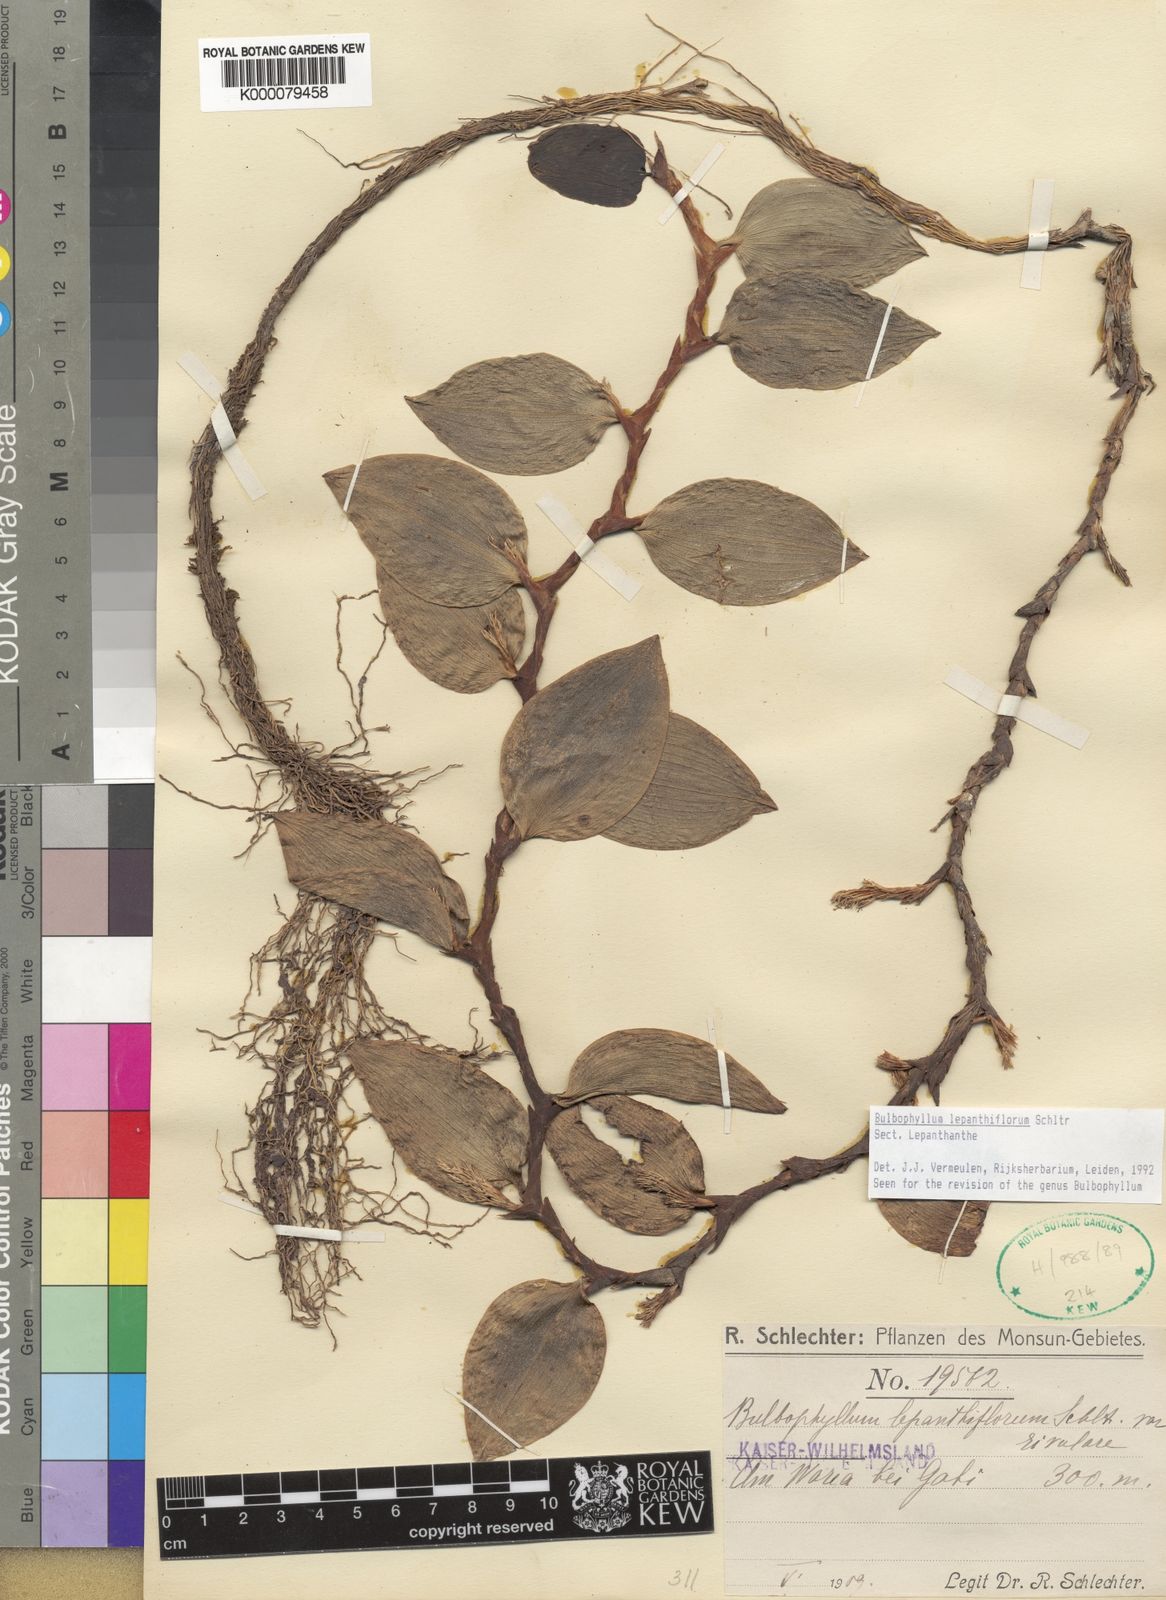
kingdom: Plantae
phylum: Tracheophyta
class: Liliopsida
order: Asparagales
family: Orchidaceae
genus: Bulbophyllum
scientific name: Bulbophyllum lepanthiflorum
